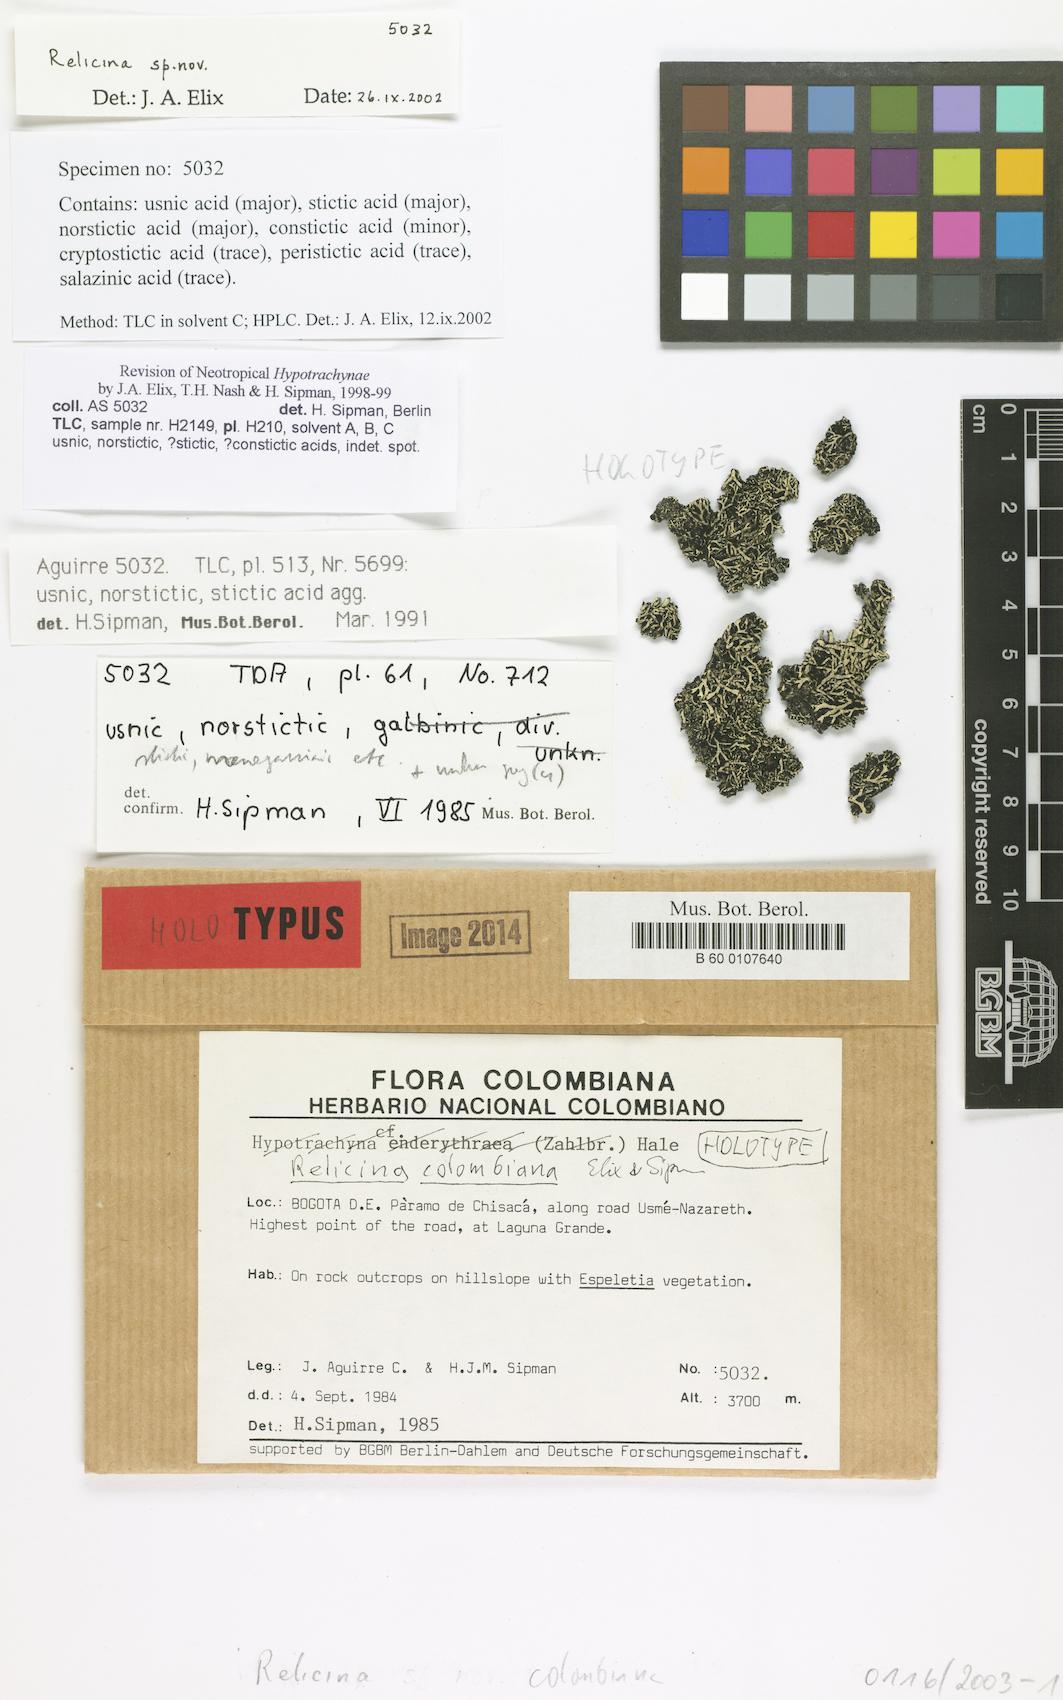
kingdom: Fungi
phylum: Ascomycota
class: Lecanoromycetes
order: Lecanorales
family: Parmeliaceae
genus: Relicina
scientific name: Relicina colombiana
